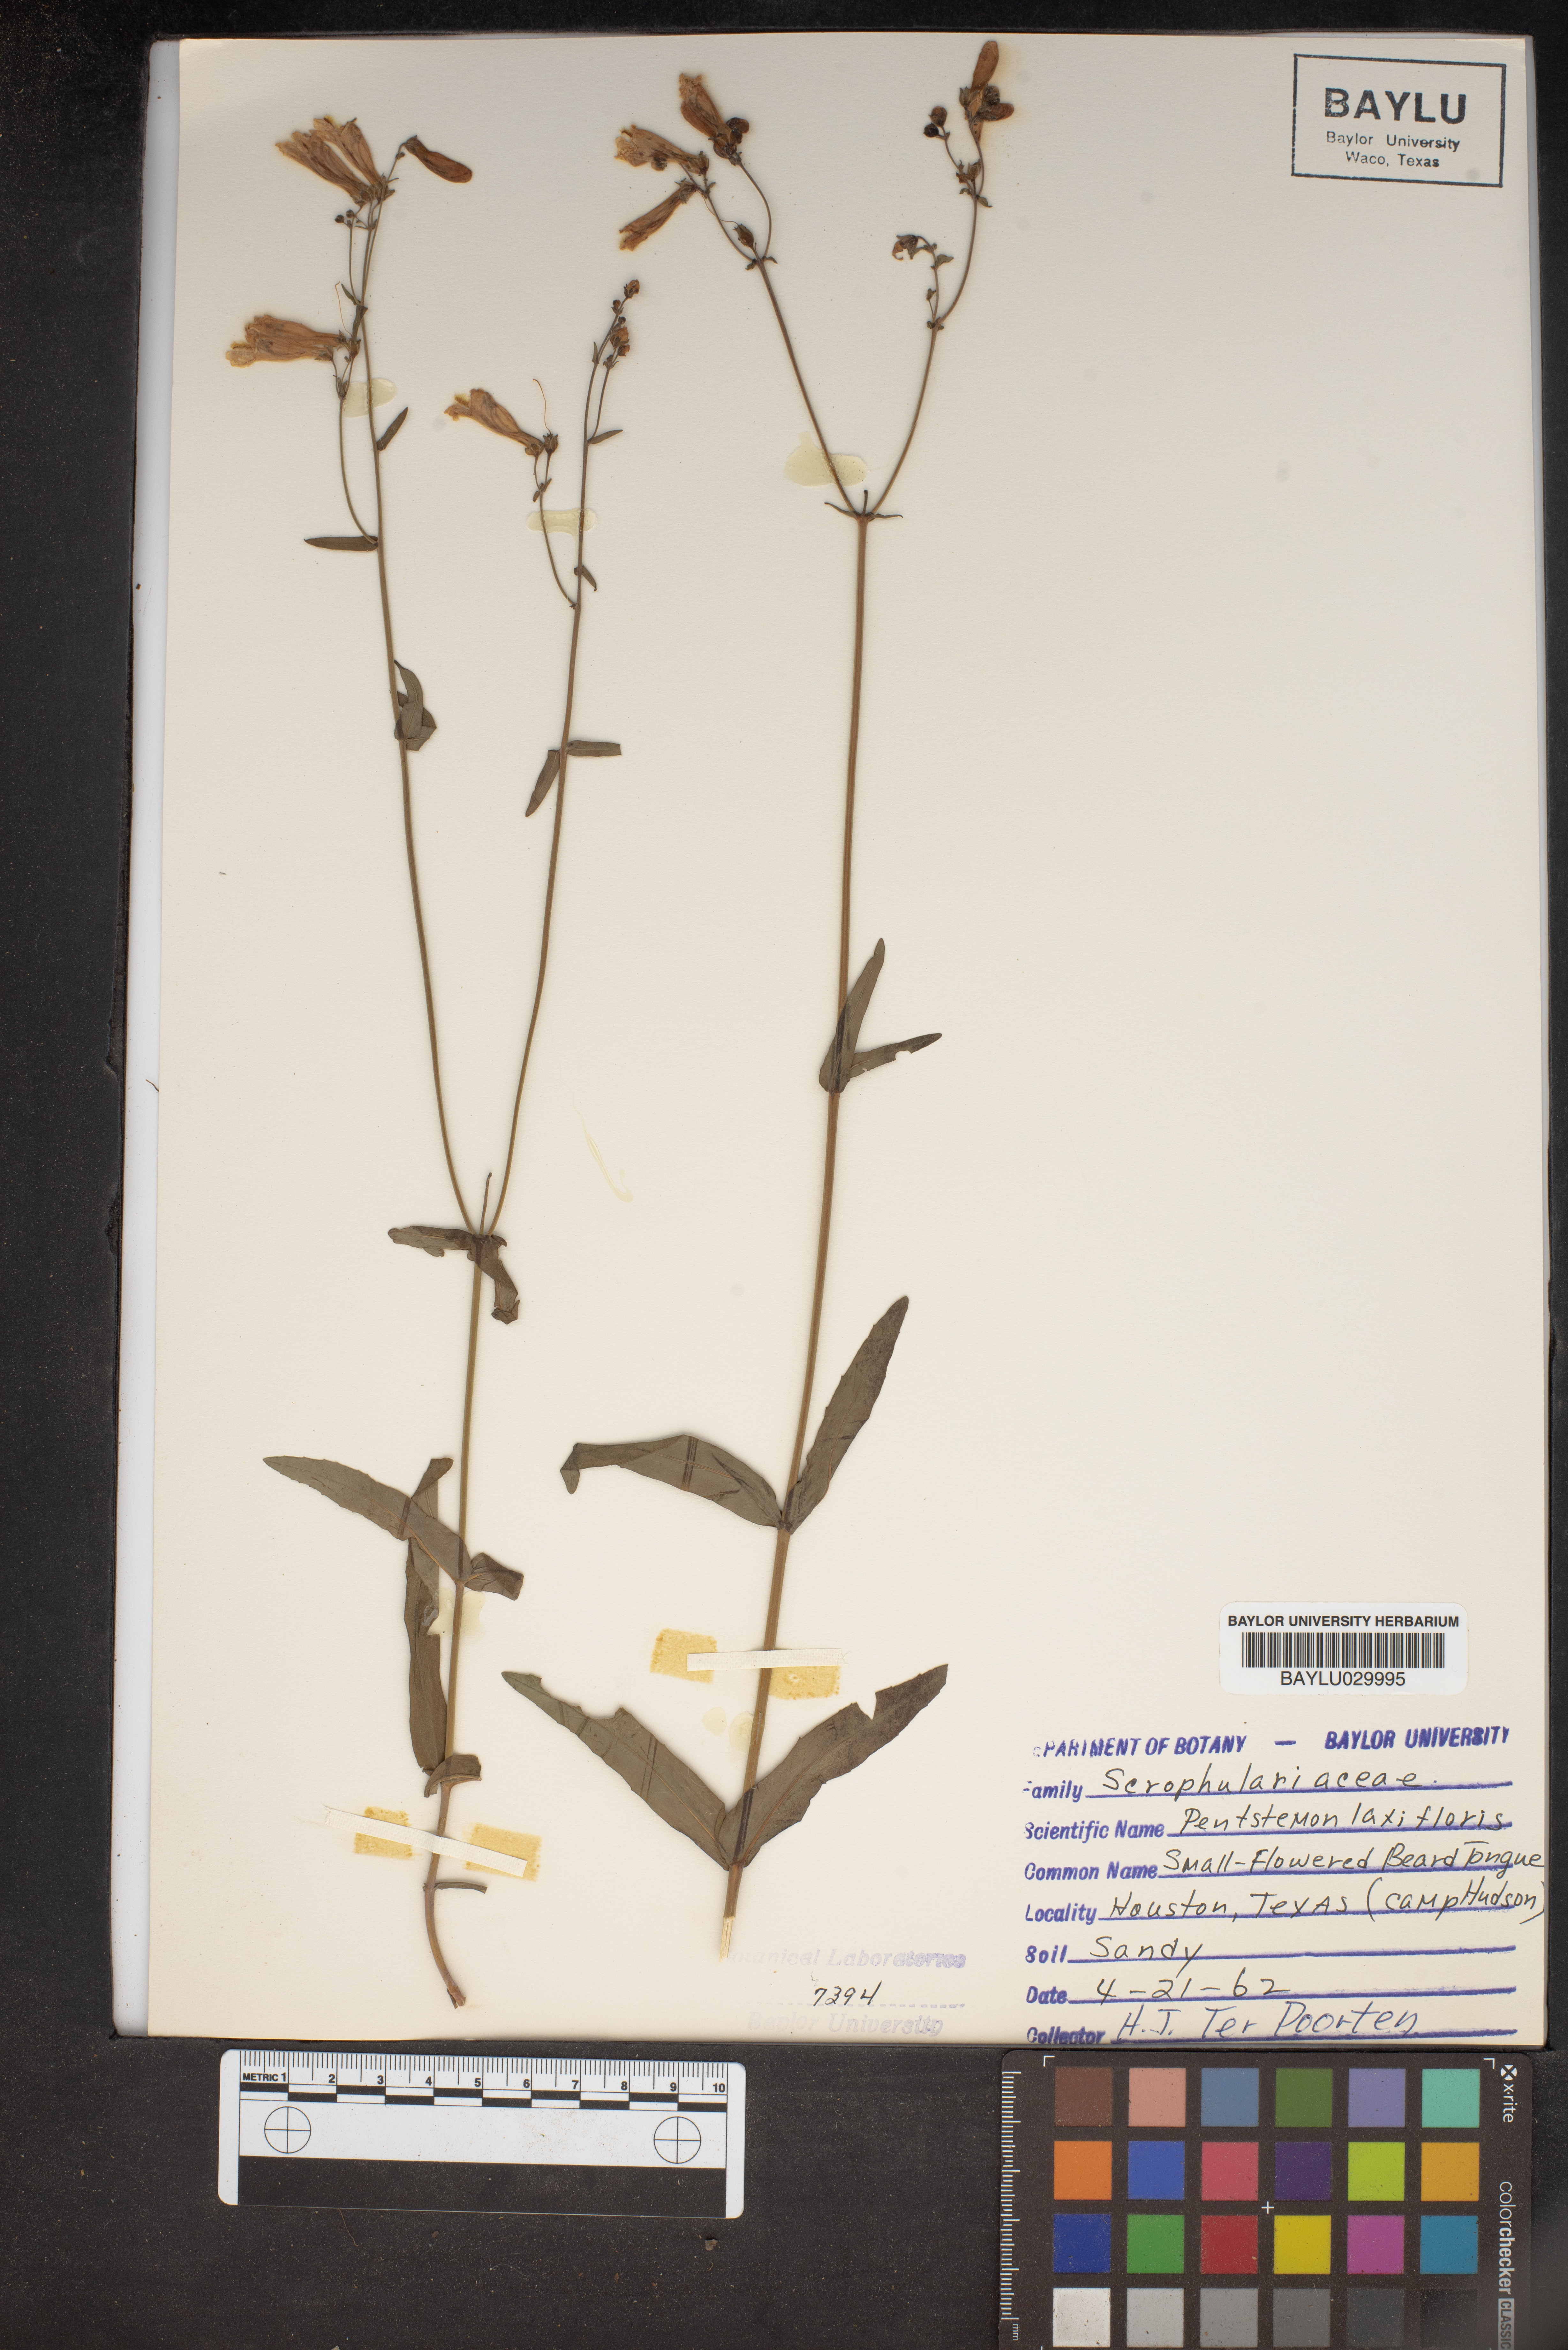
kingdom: Plantae
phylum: Tracheophyta
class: Magnoliopsida
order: Lamiales
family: Plantaginaceae
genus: Penstemon
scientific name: Penstemon
